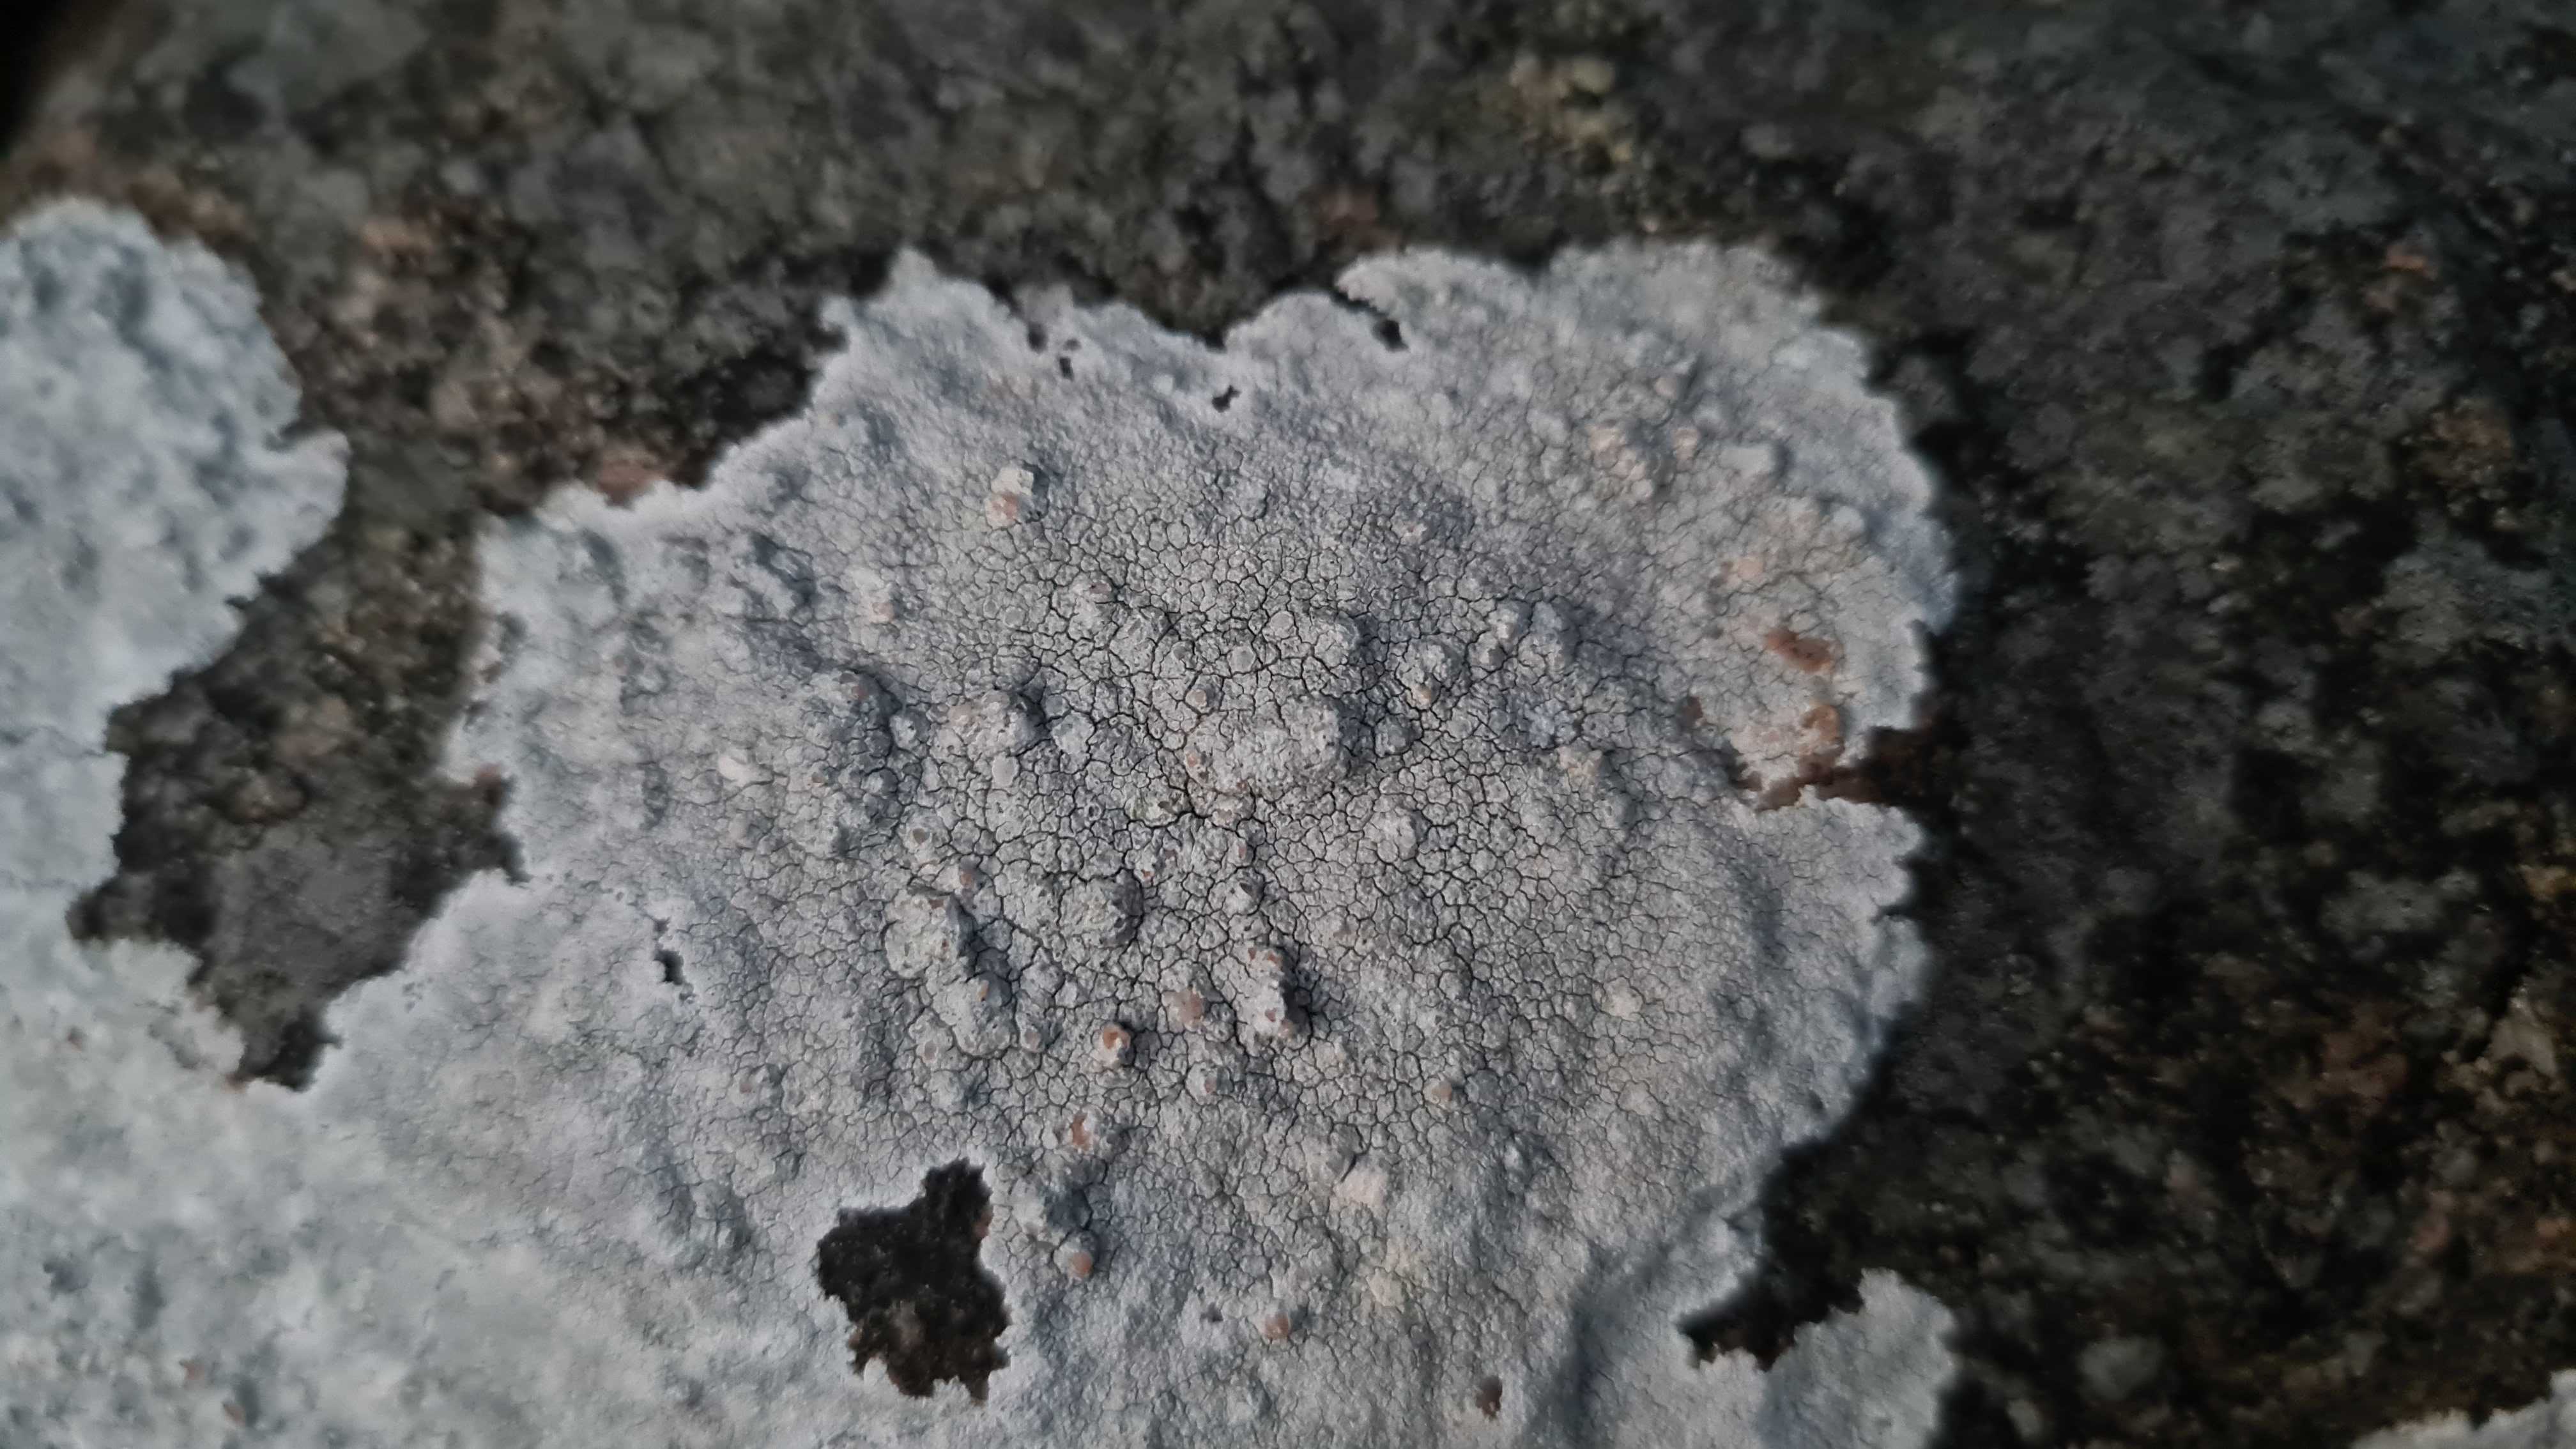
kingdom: Fungi
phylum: Ascomycota
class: Lecanoromycetes
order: Lecanorales
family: Lecanoraceae
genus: Glaucomaria
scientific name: Glaucomaria rupicola
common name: stengærde-kantskivelav
